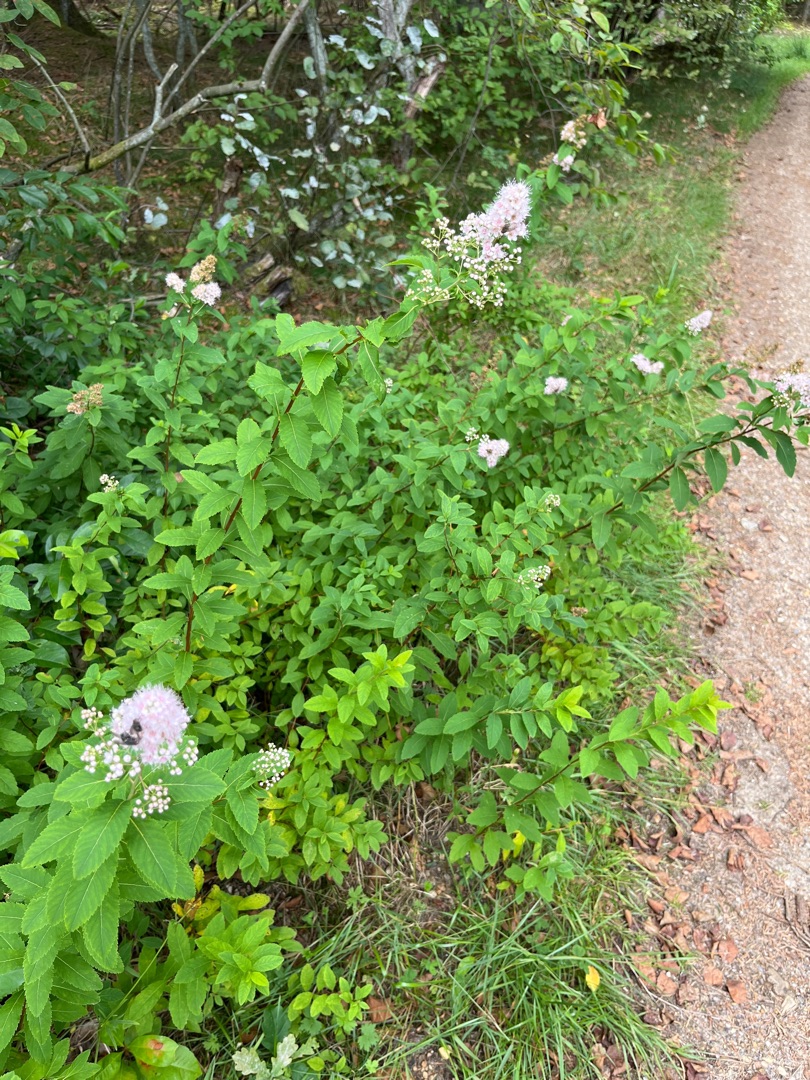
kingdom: Plantae
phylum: Tracheophyta
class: Magnoliopsida
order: Rosales
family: Rosaceae
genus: Spiraea
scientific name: Spiraea rosalba
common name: Bleg spiræa
